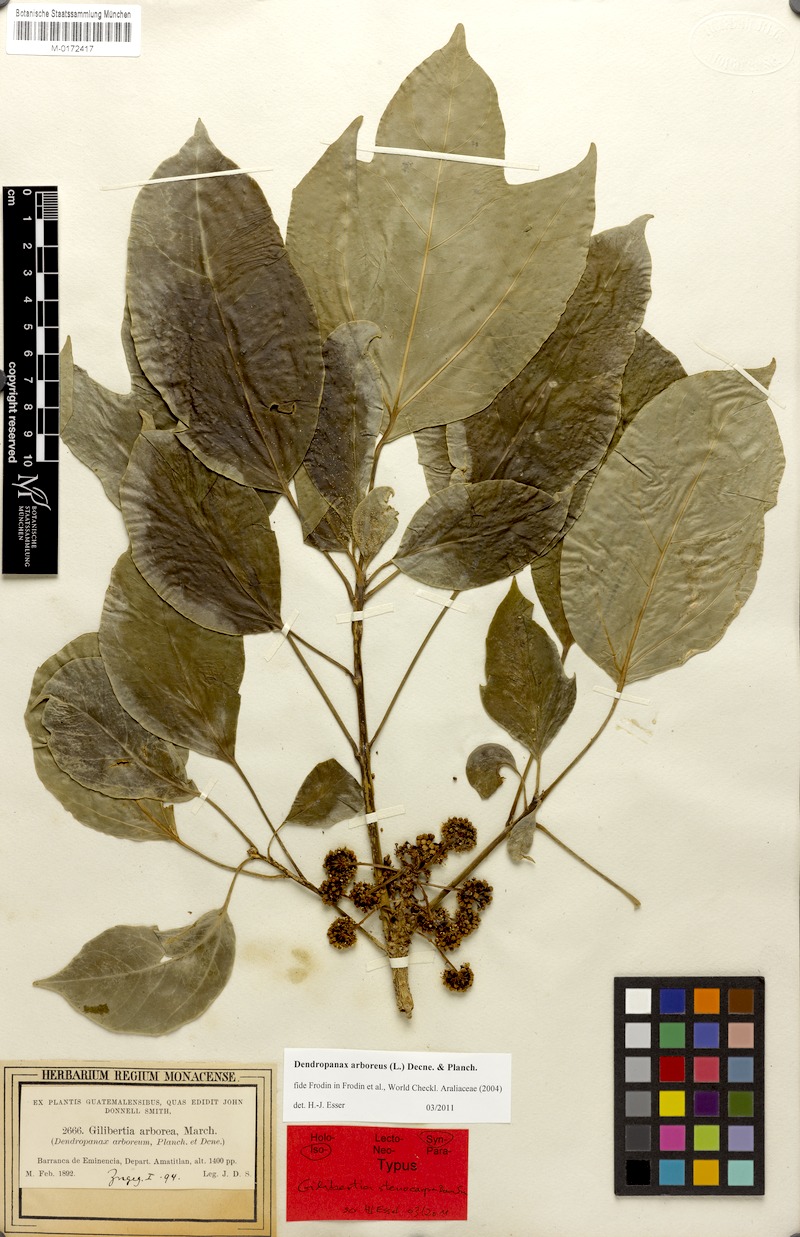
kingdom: Plantae
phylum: Tracheophyta
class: Magnoliopsida
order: Apiales
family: Araliaceae
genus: Dendropanax
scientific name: Dendropanax arboreus
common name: Potato-wood
